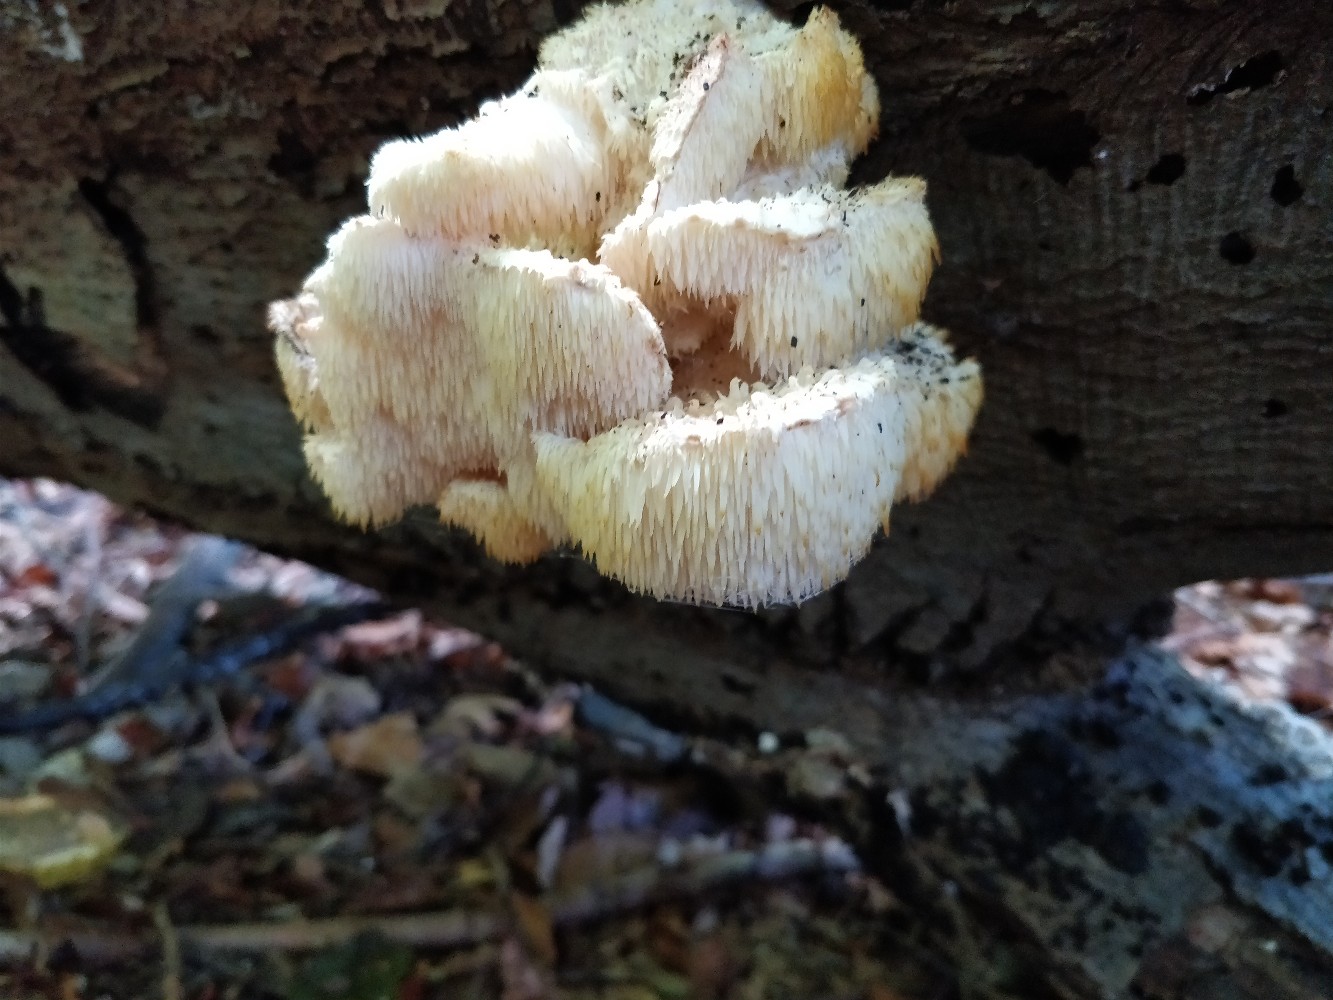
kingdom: Fungi
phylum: Basidiomycota
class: Agaricomycetes
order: Russulales
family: Hericiaceae
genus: Hericium
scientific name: Hericium cirrhatum
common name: børstepigsvamp
